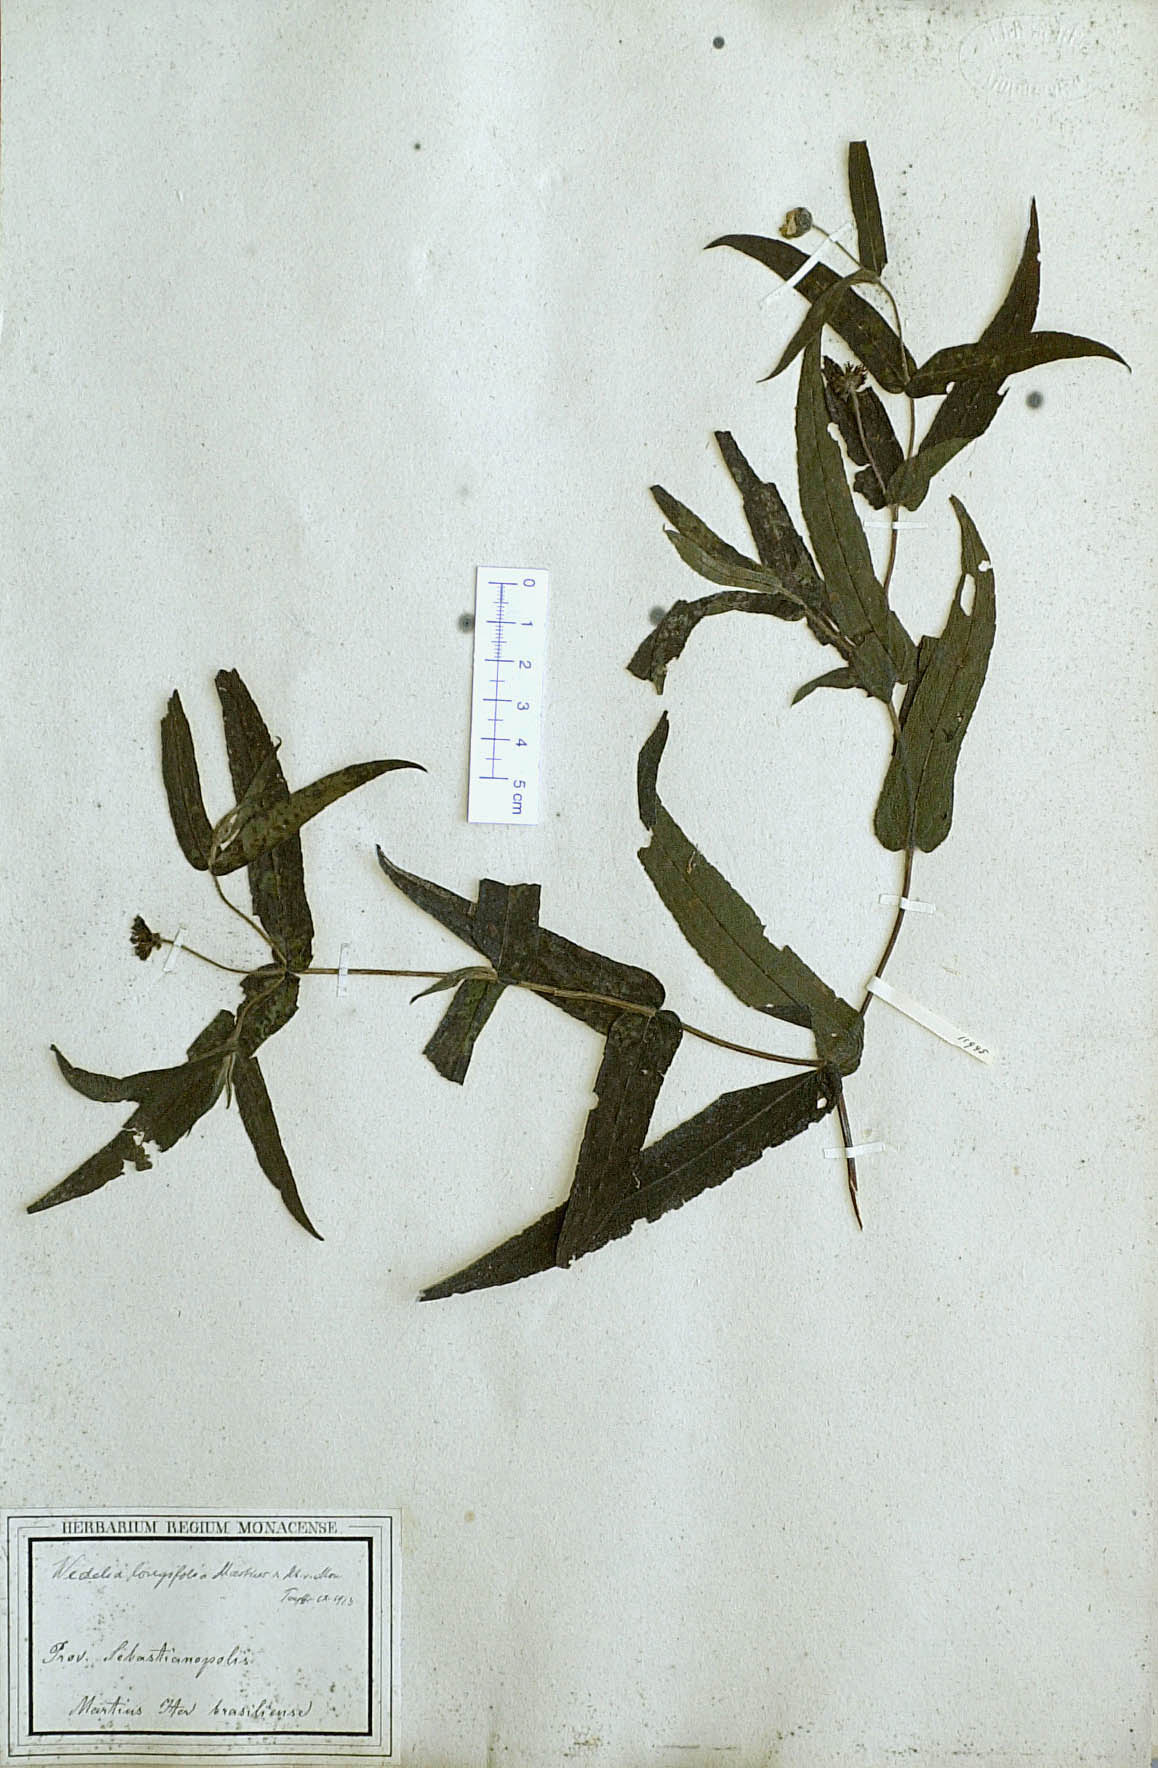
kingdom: Plantae
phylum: Tracheophyta
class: Magnoliopsida
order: Asterales
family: Asteraceae
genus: Wedelia
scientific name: Wedelia longifolia
